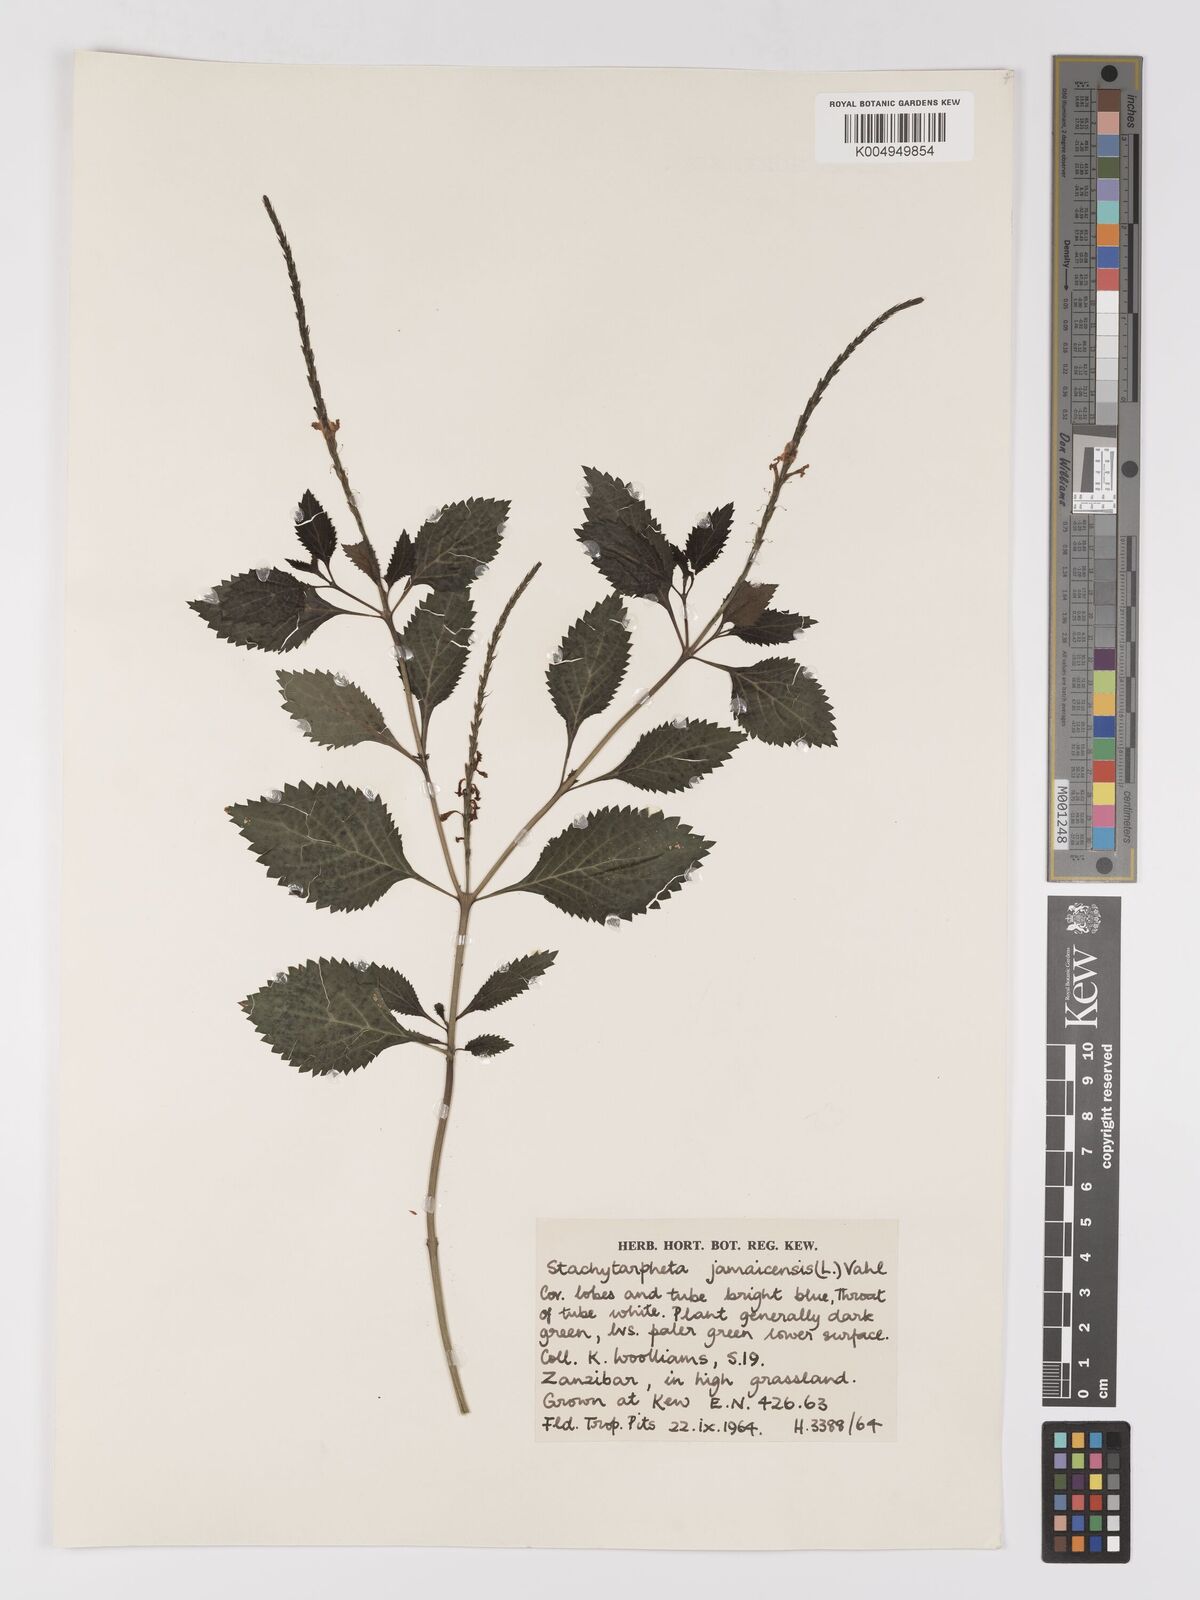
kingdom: Plantae
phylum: Tracheophyta
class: Magnoliopsida
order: Lamiales
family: Verbenaceae
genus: Stachytarpheta
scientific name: Stachytarpheta jamaicensis
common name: Light-blue snakeweed
